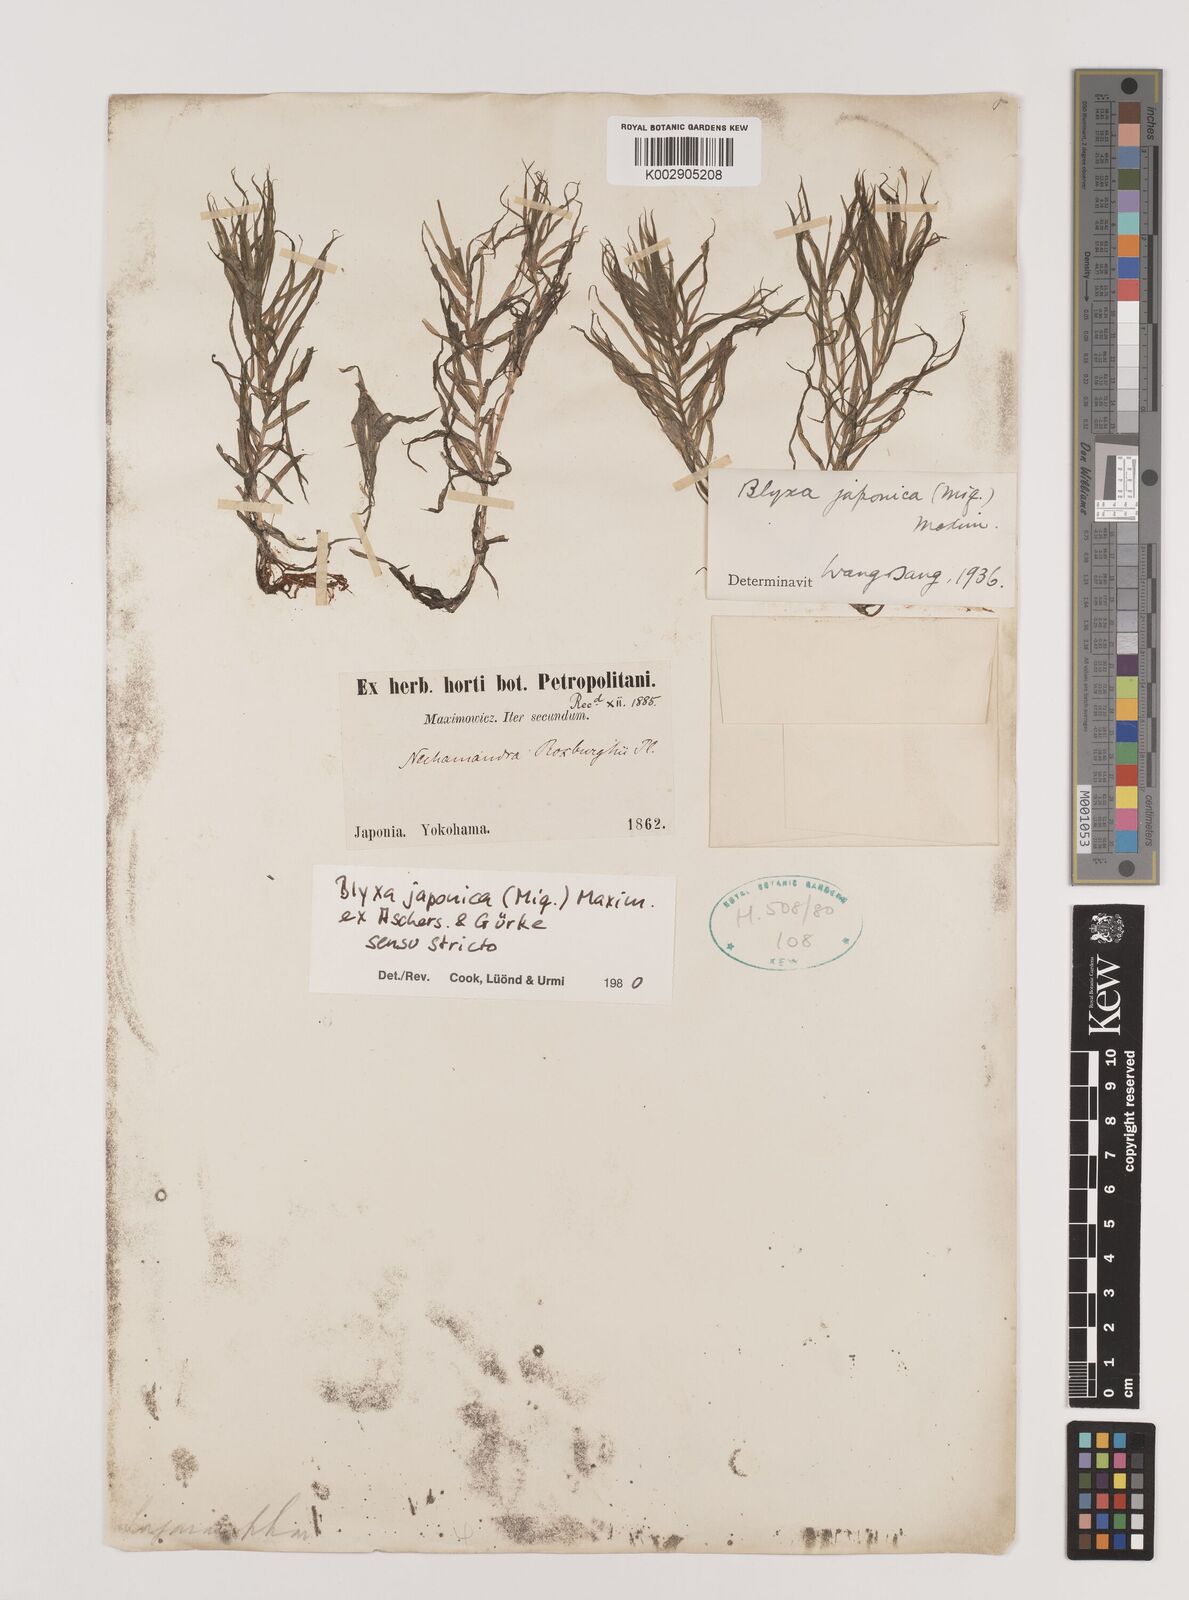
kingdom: Plantae
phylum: Tracheophyta
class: Liliopsida
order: Alismatales
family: Hydrocharitaceae
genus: Blyxa
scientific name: Blyxa japonica
